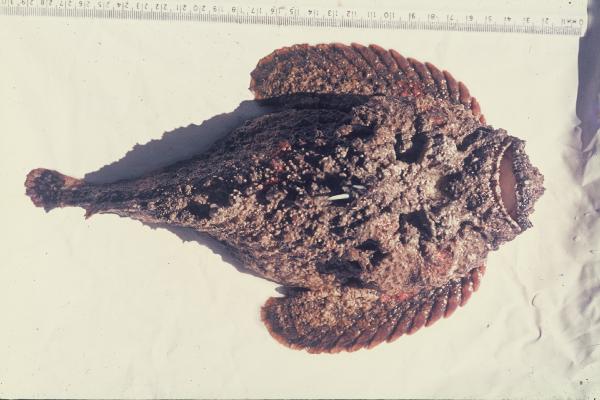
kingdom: Animalia
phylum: Chordata
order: Scorpaeniformes
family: Synanceiidae
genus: Synanceia
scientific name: Synanceia verrucosa
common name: Stonefish
